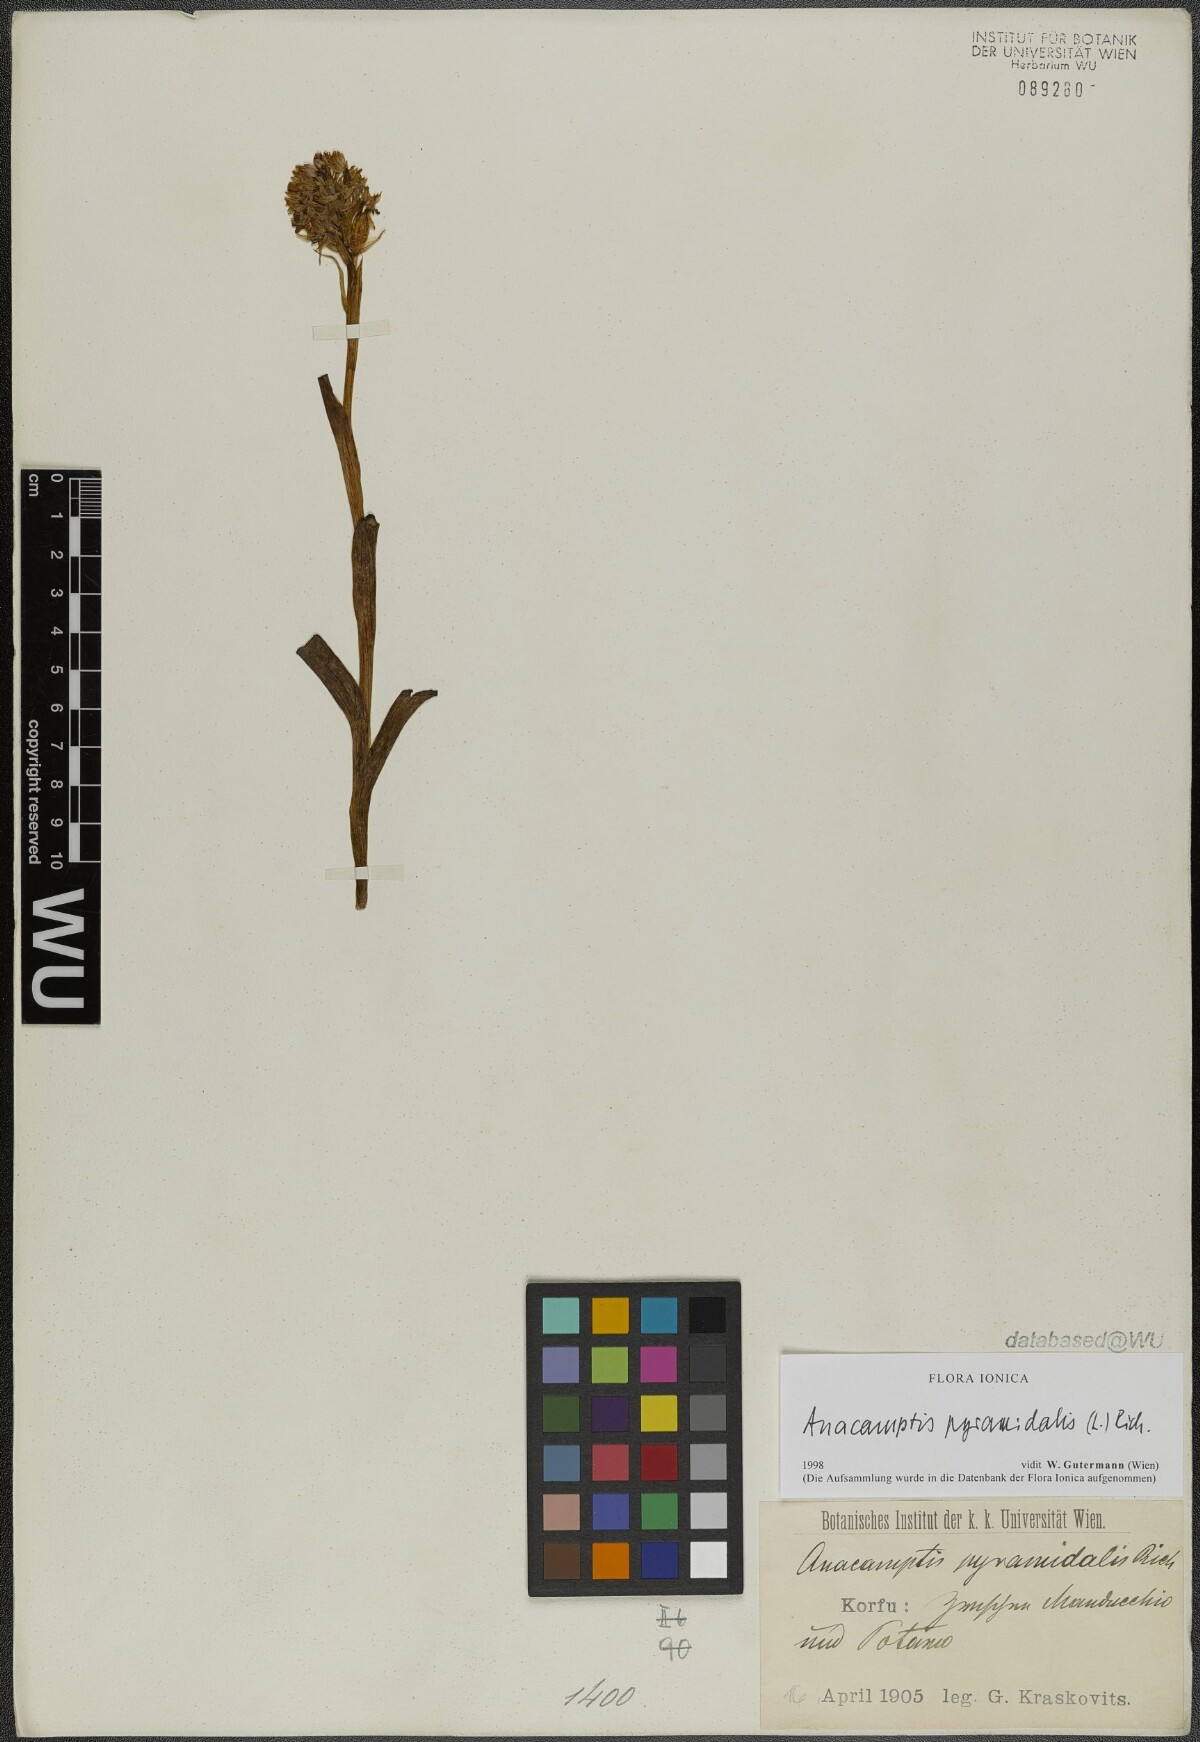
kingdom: Plantae
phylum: Tracheophyta
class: Liliopsida
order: Asparagales
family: Orchidaceae
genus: Anacamptis
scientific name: Anacamptis pyramidalis
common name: Pyramidal orchid
